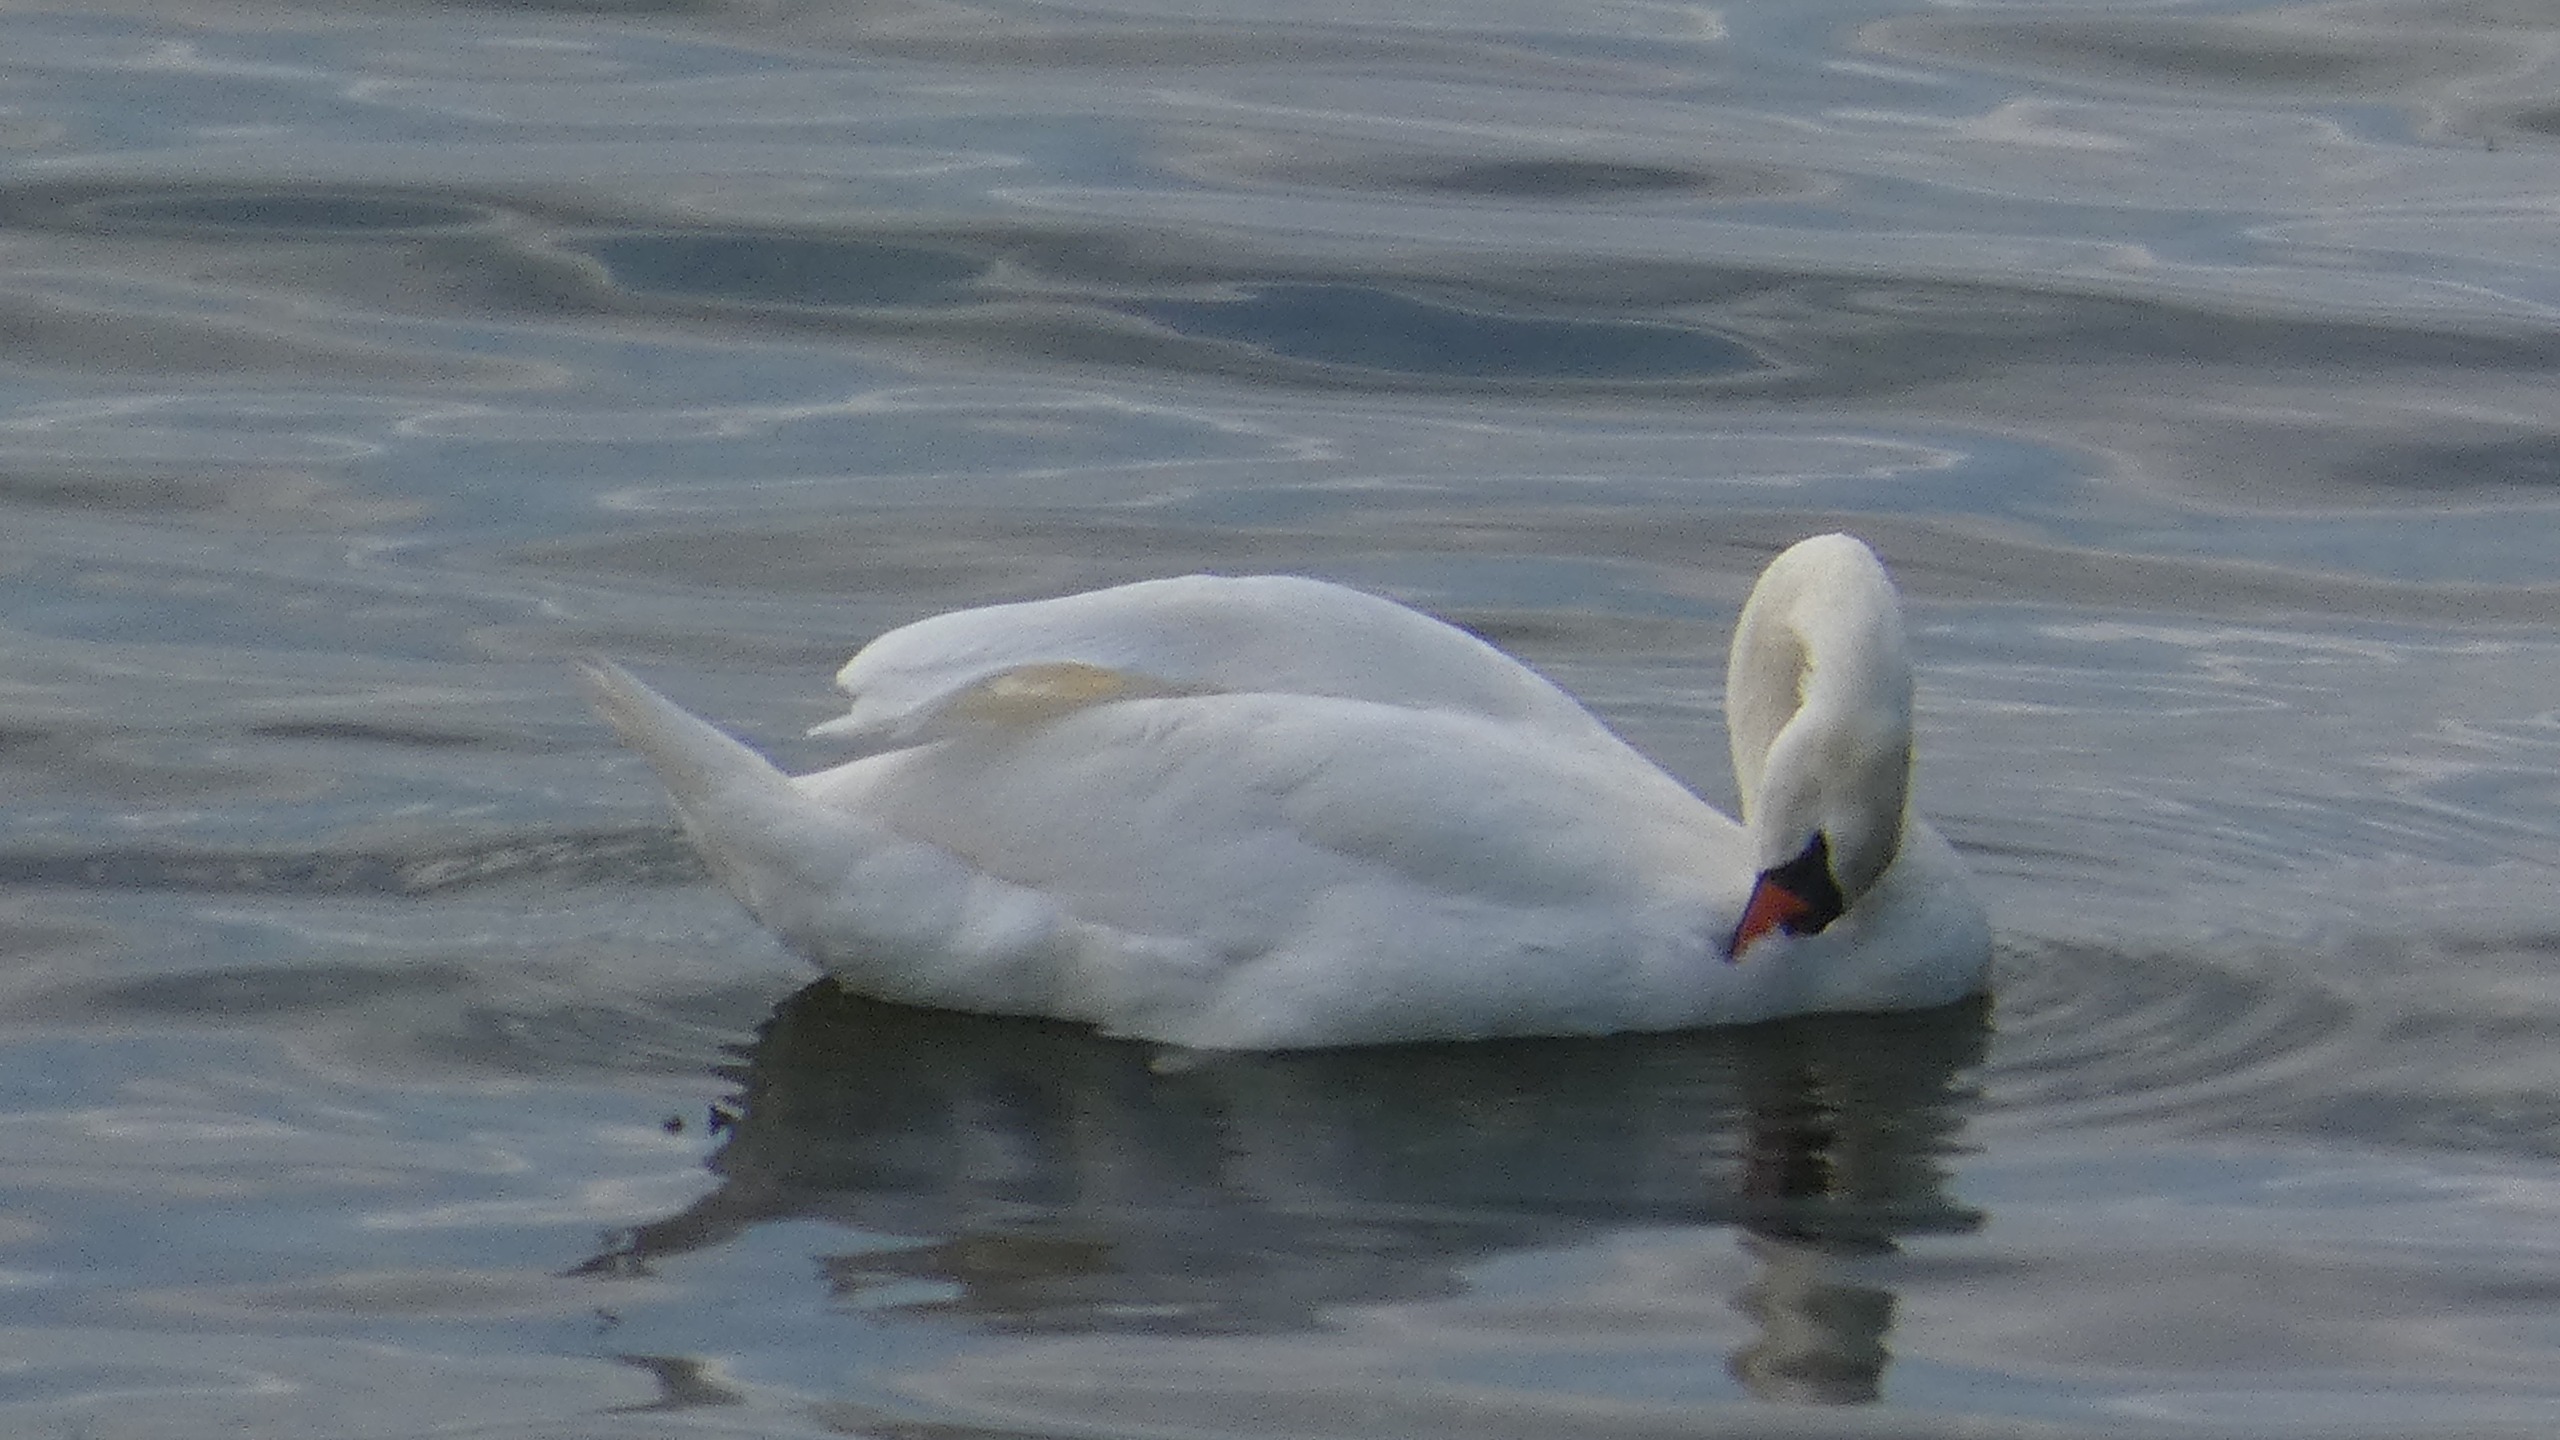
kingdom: Animalia
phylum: Chordata
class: Aves
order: Anseriformes
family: Anatidae
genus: Cygnus
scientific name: Cygnus olor
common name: Knopsvane
